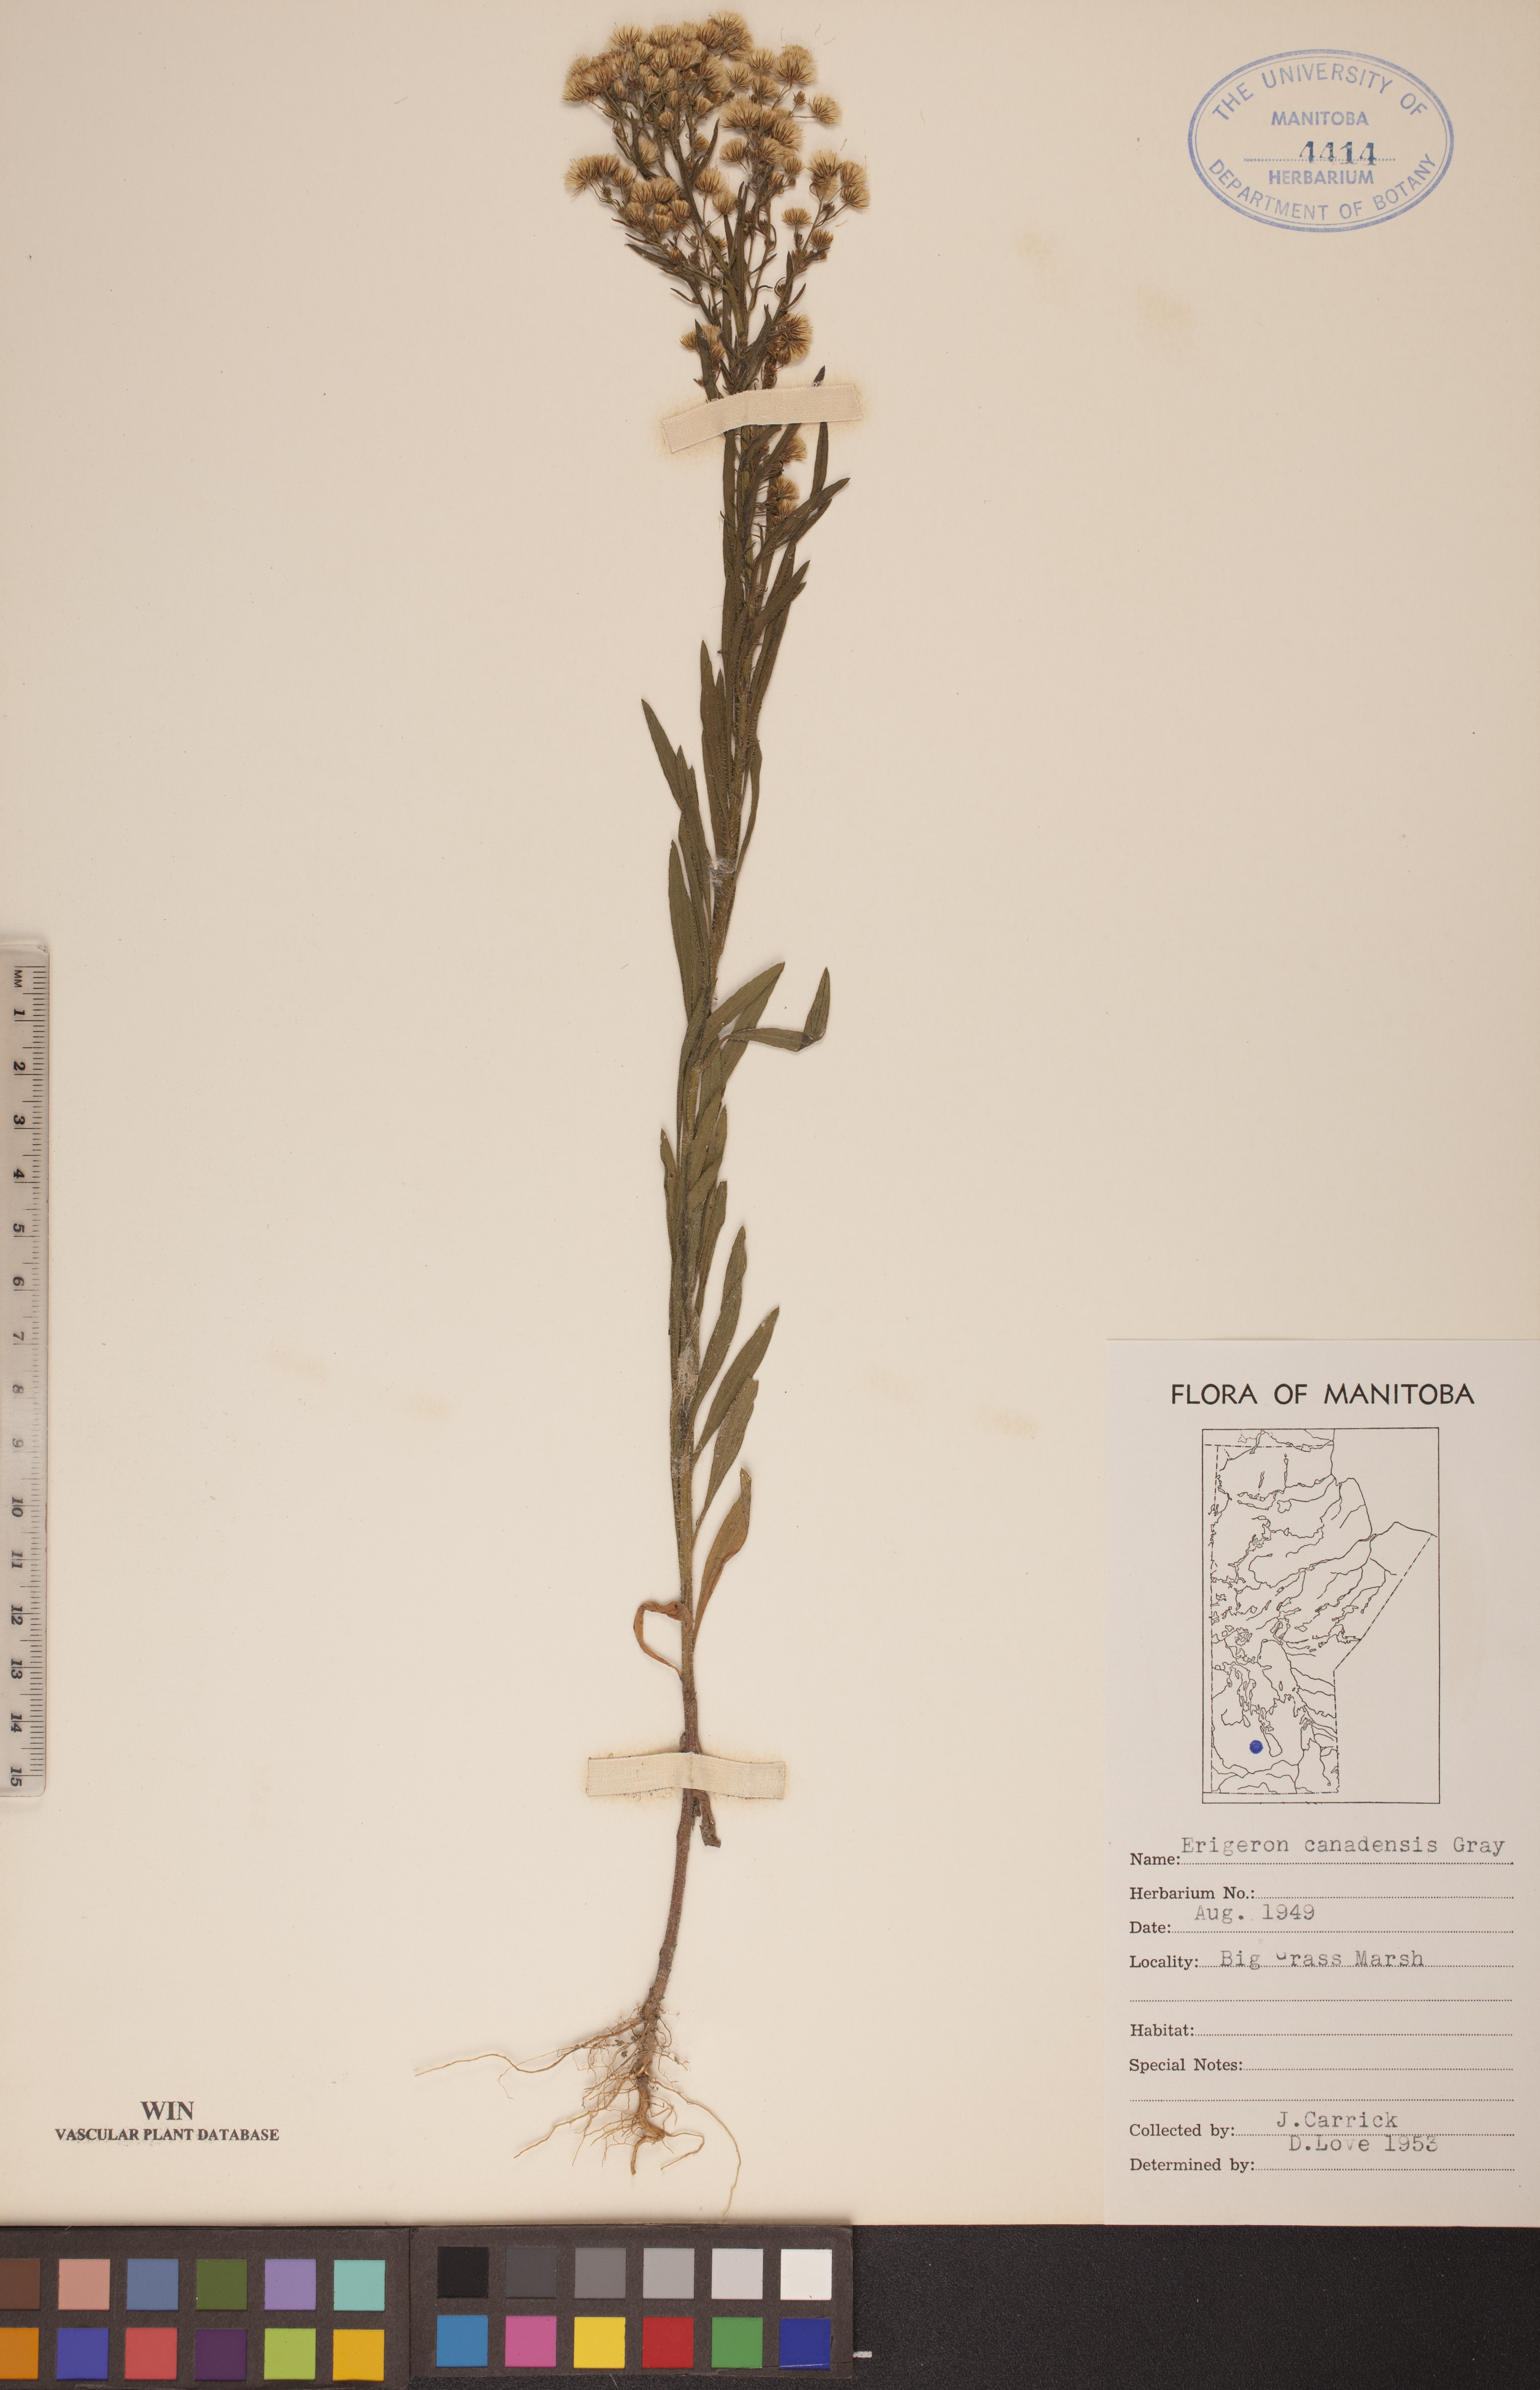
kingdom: Plantae
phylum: Tracheophyta
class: Magnoliopsida
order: Asterales
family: Asteraceae
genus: Erigeron
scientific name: Erigeron canadensis
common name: Canadian fleabane
